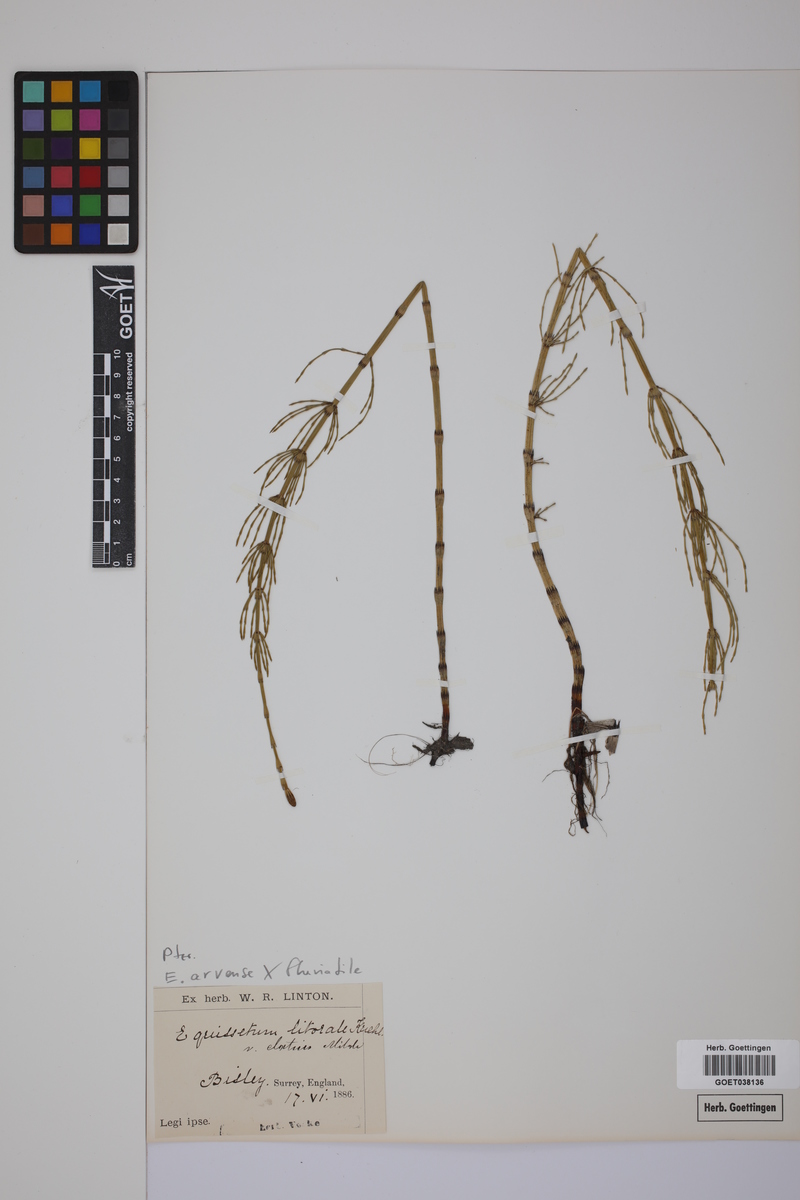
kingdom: Plantae
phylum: Tracheophyta
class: Polypodiopsida
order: Equisetales
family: Equisetaceae
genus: Equisetum
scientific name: Equisetum litorale
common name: Littoral horsetail
